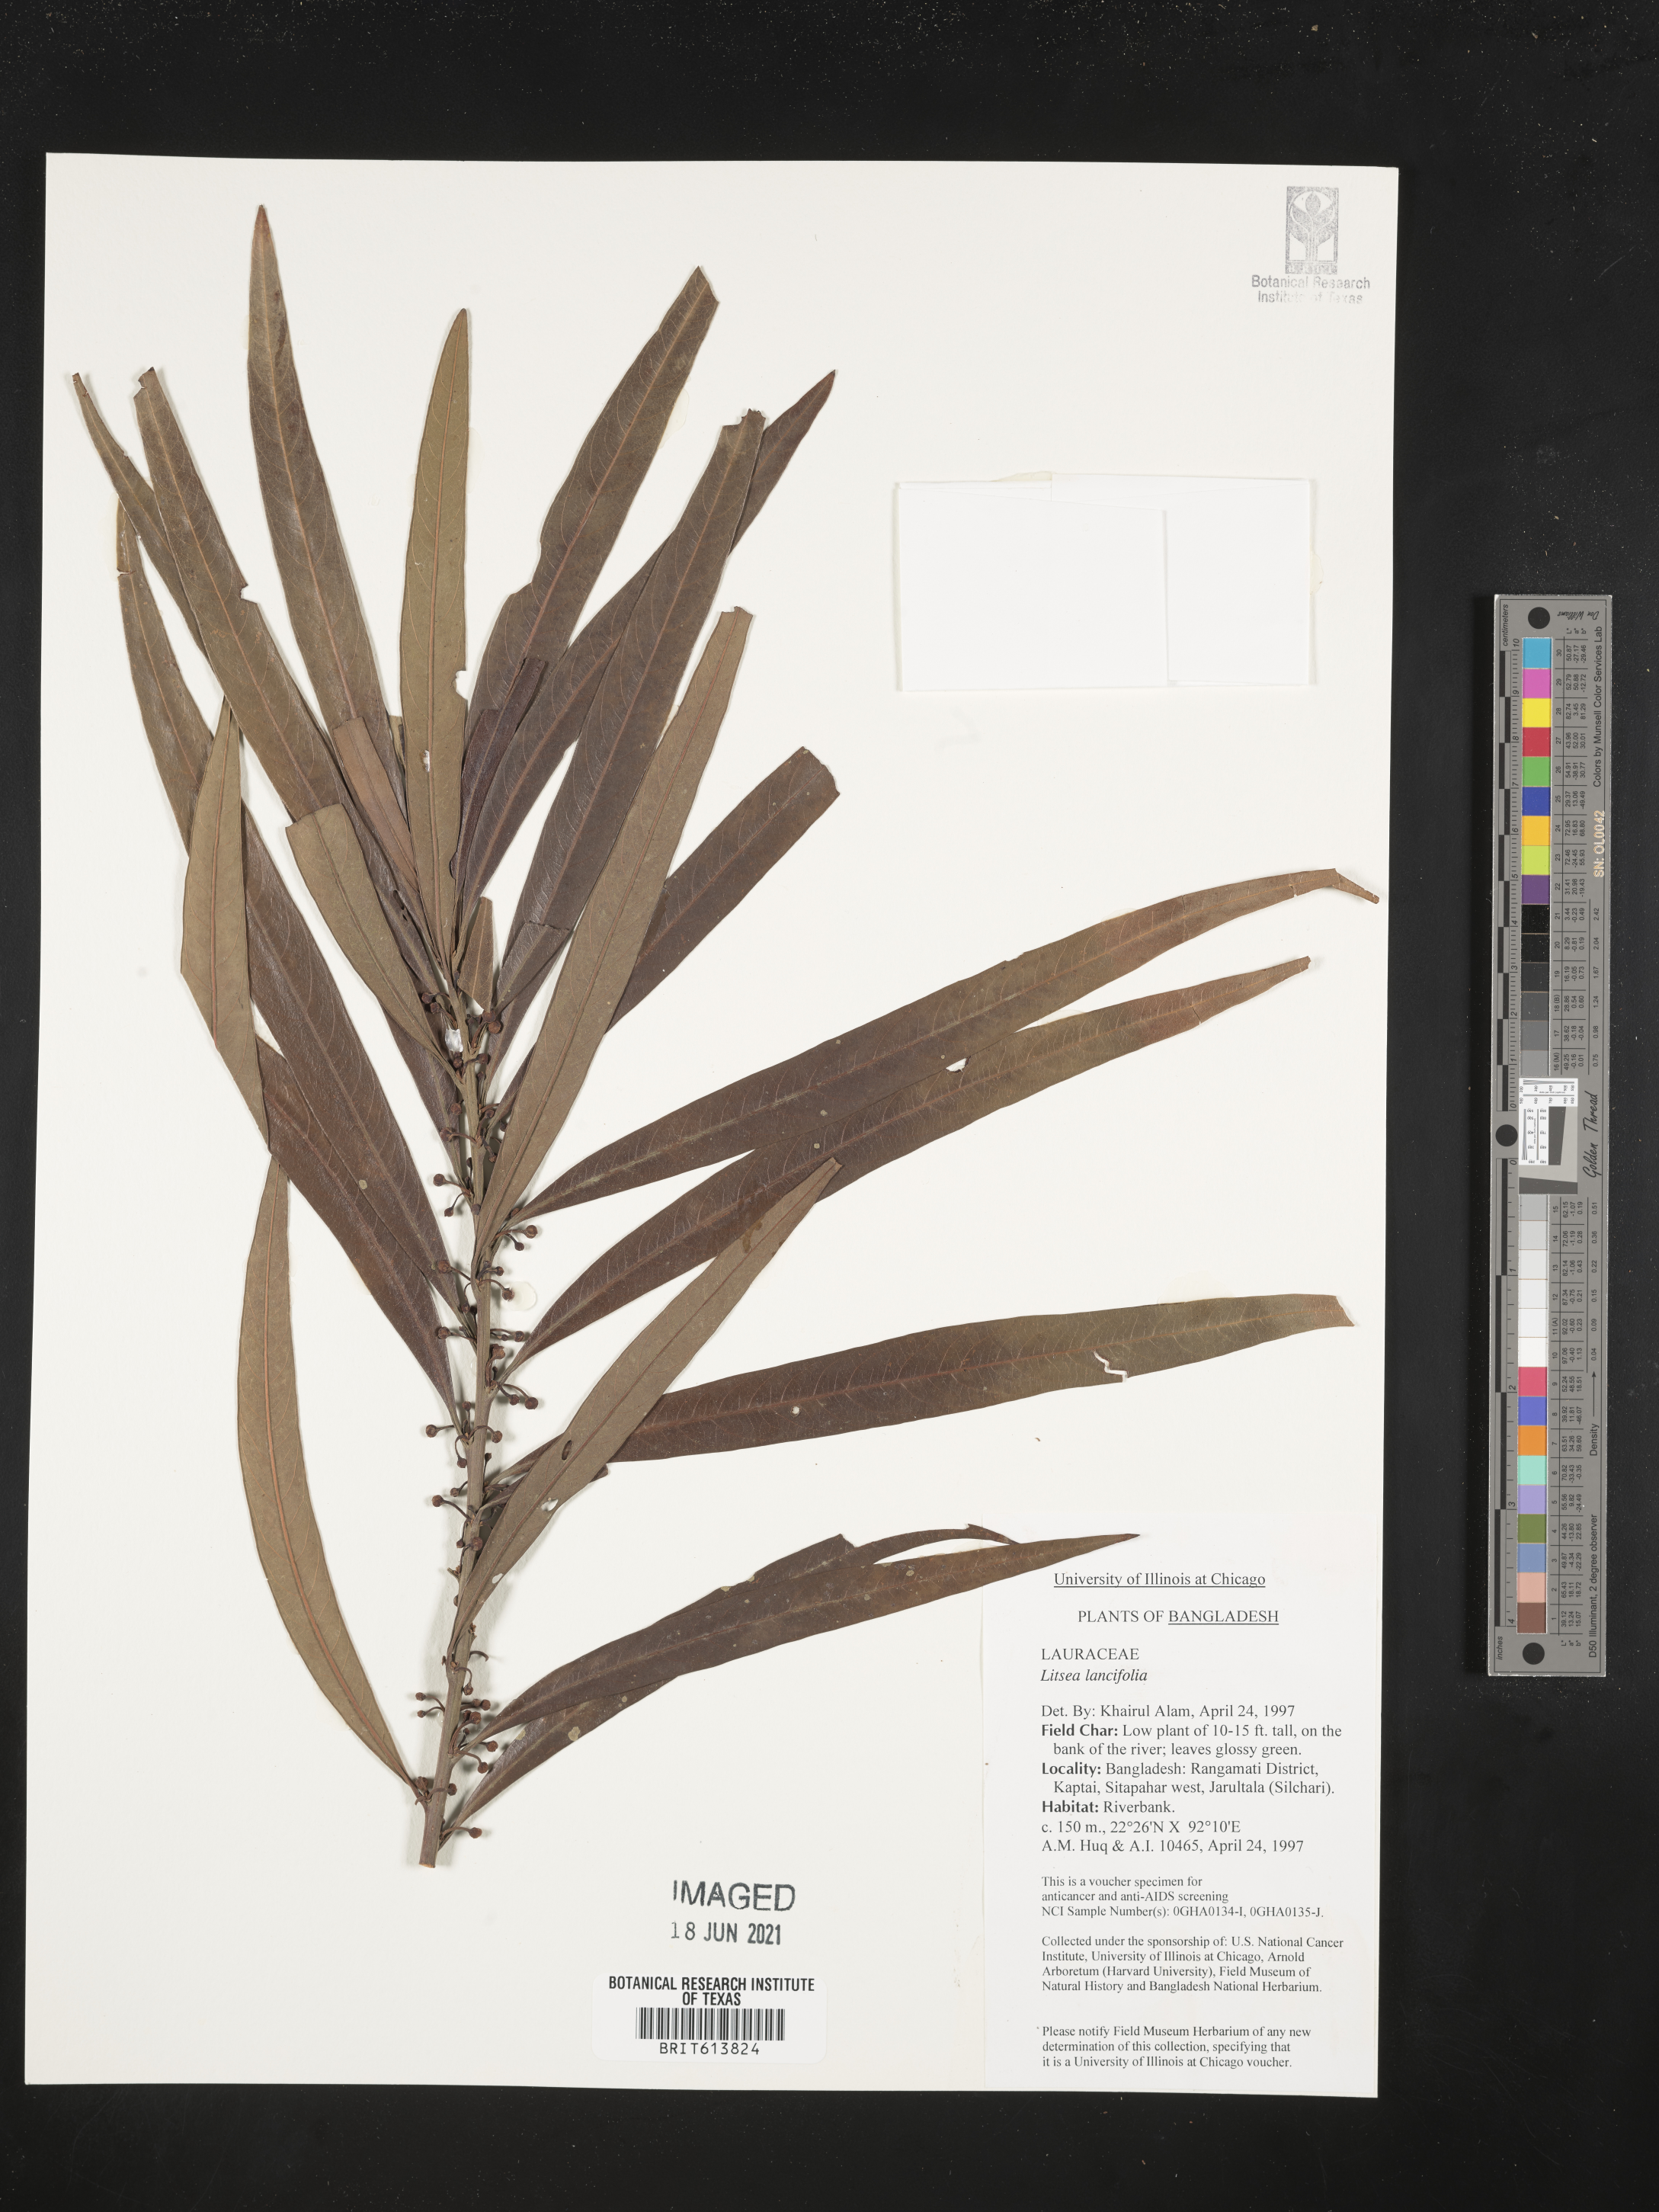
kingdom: Plantae
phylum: Tracheophyta
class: Magnoliopsida
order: Laurales
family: Lauraceae
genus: Litsea
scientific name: Litsea lancifolia
